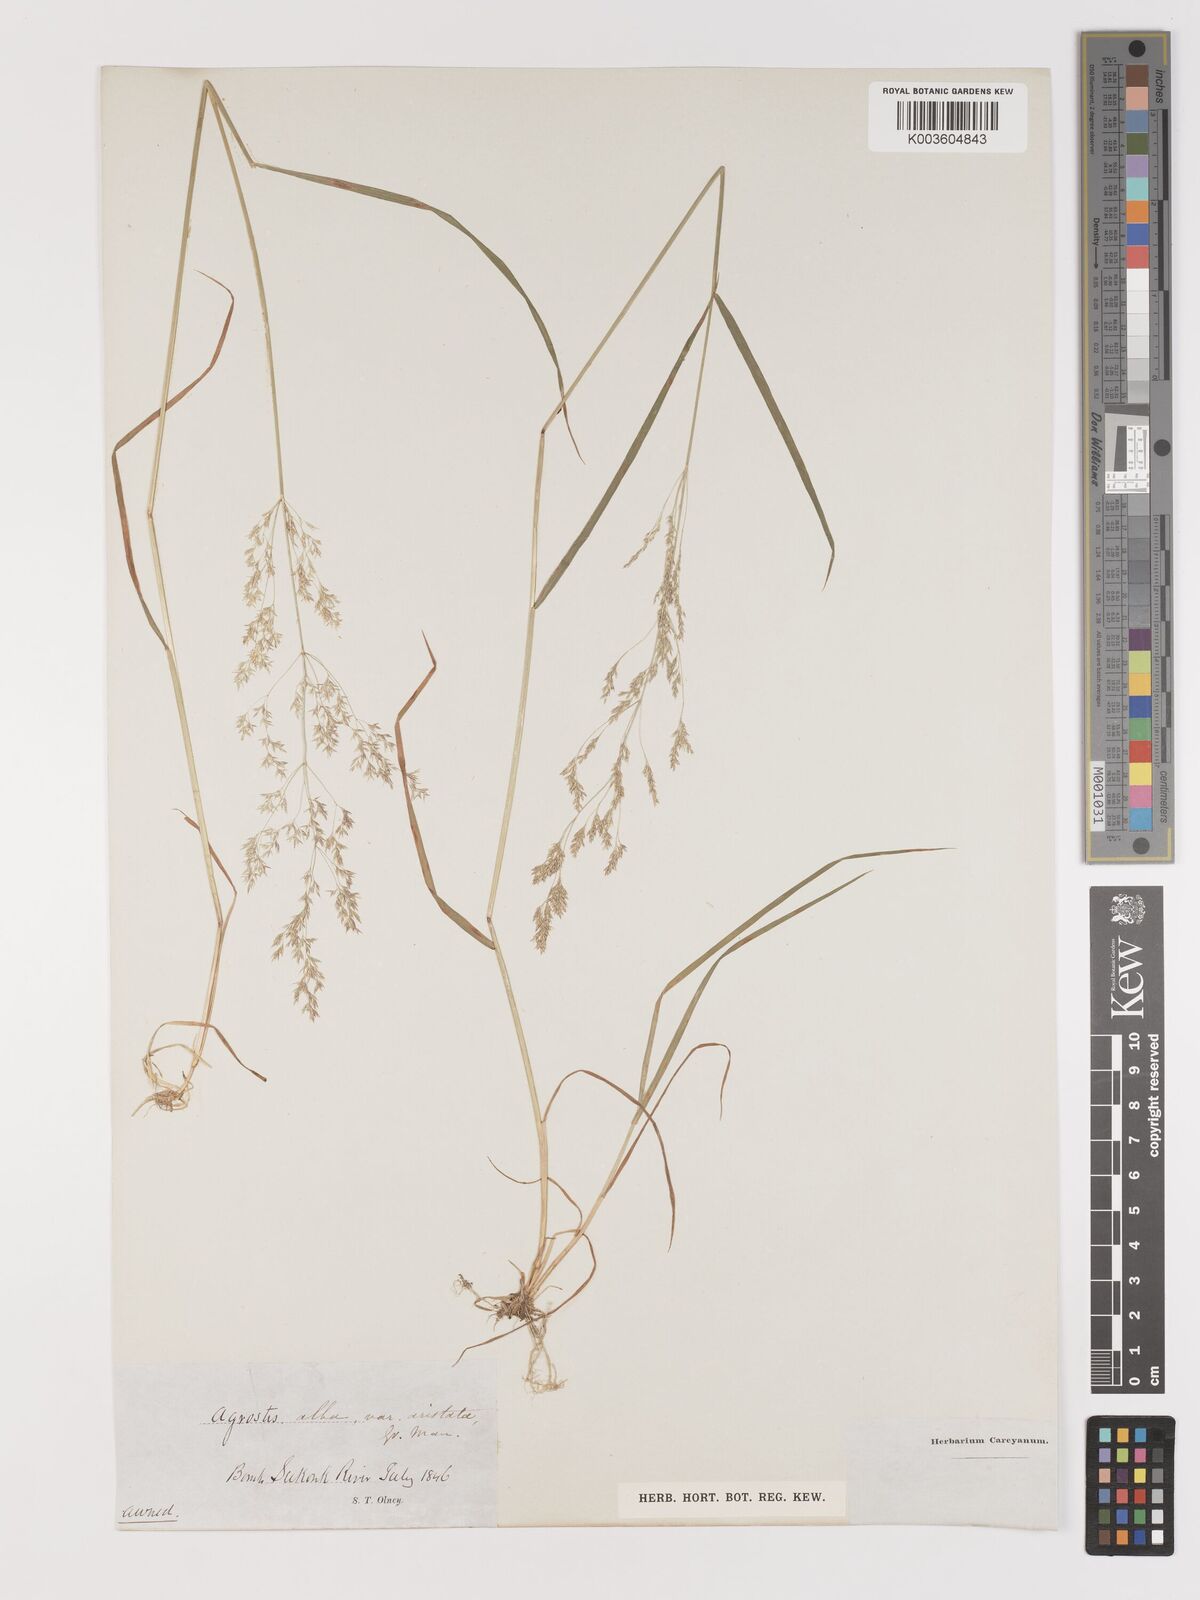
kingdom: Plantae
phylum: Tracheophyta
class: Liliopsida
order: Poales
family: Poaceae
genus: Agrostis
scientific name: Agrostis
